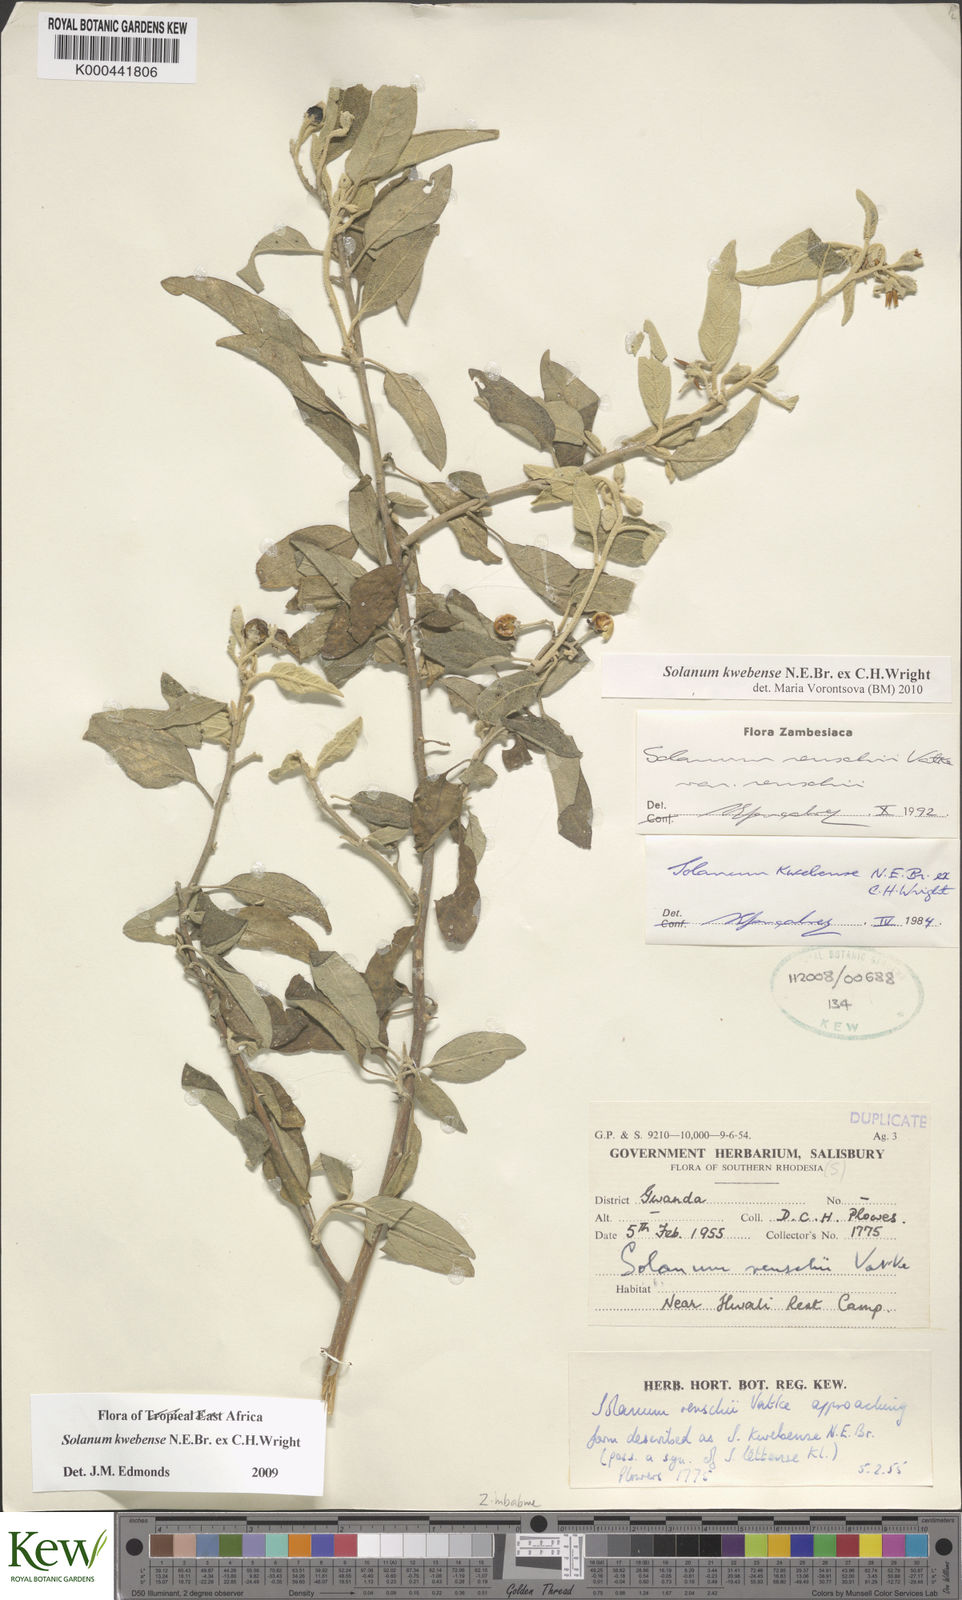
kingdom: Plantae
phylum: Tracheophyta
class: Magnoliopsida
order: Solanales
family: Solanaceae
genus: Solanum
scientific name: Solanum tettense
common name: Mozambique bitter apple
